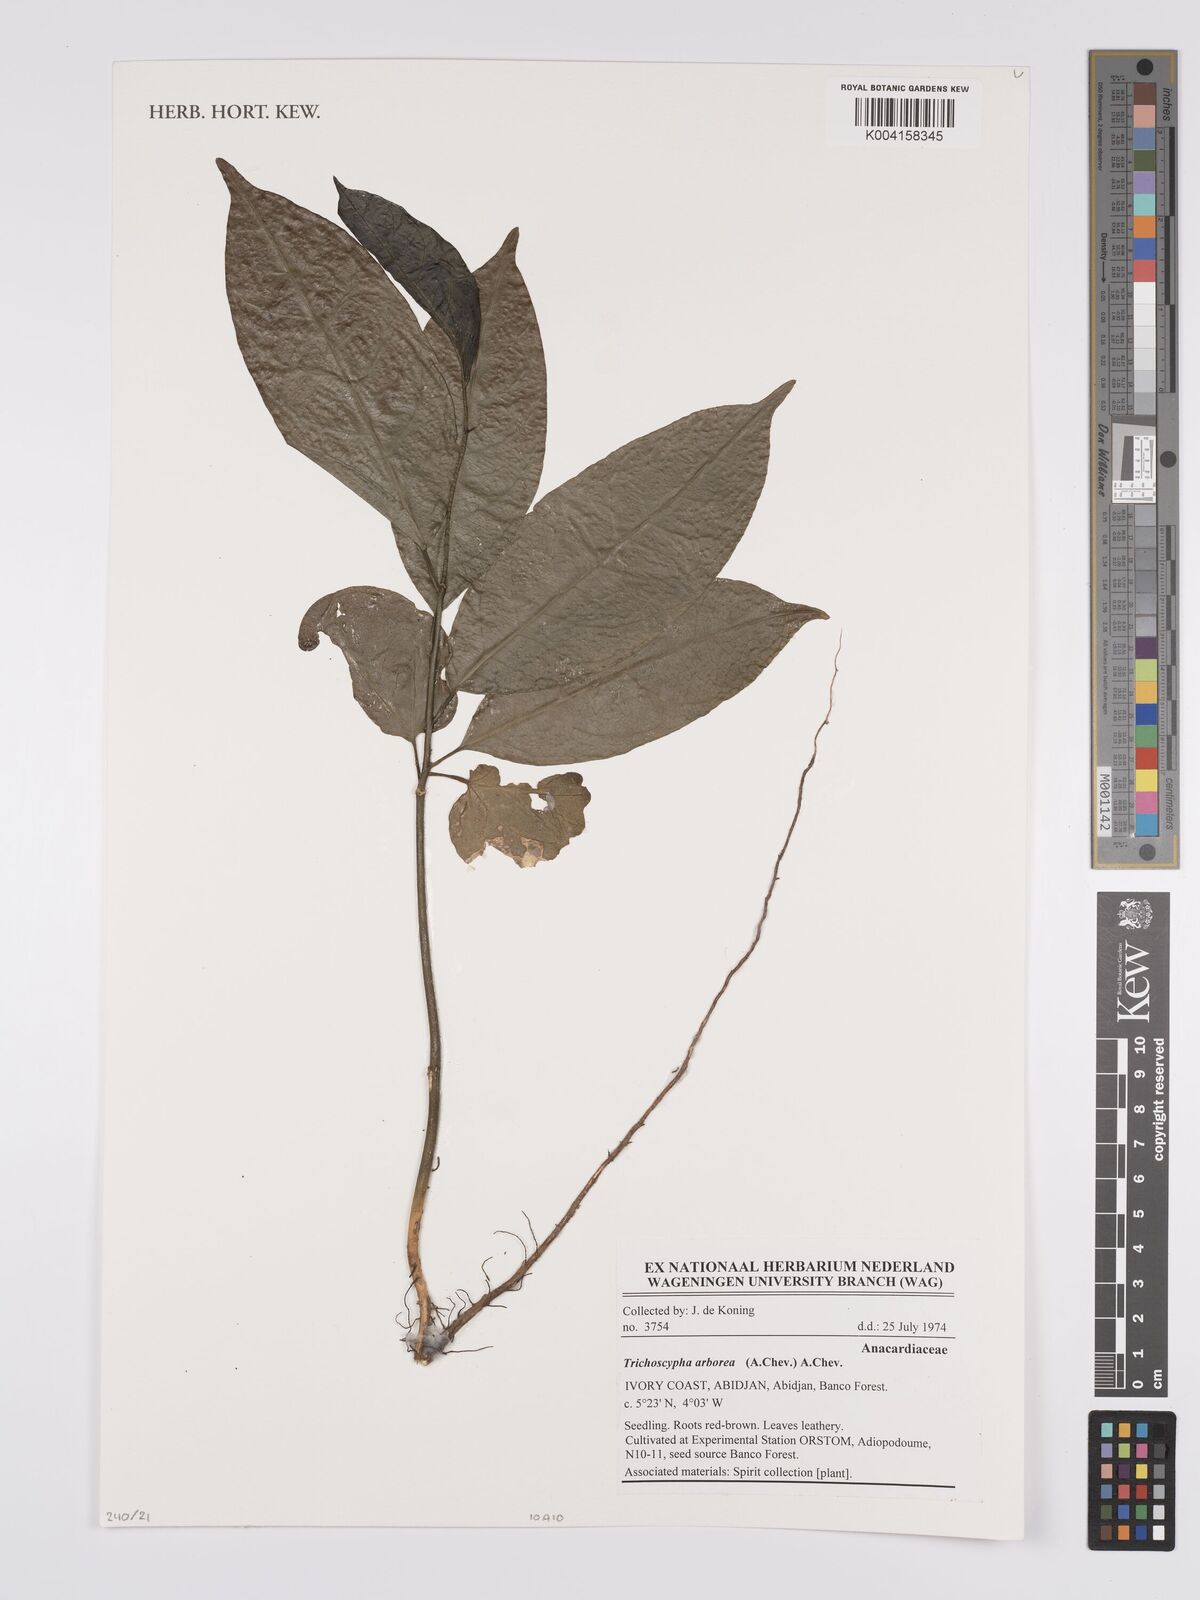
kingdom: Plantae
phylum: Tracheophyta
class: Magnoliopsida
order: Sapindales
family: Anacardiaceae
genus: Trichoscypha
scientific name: Trichoscypha arborea
